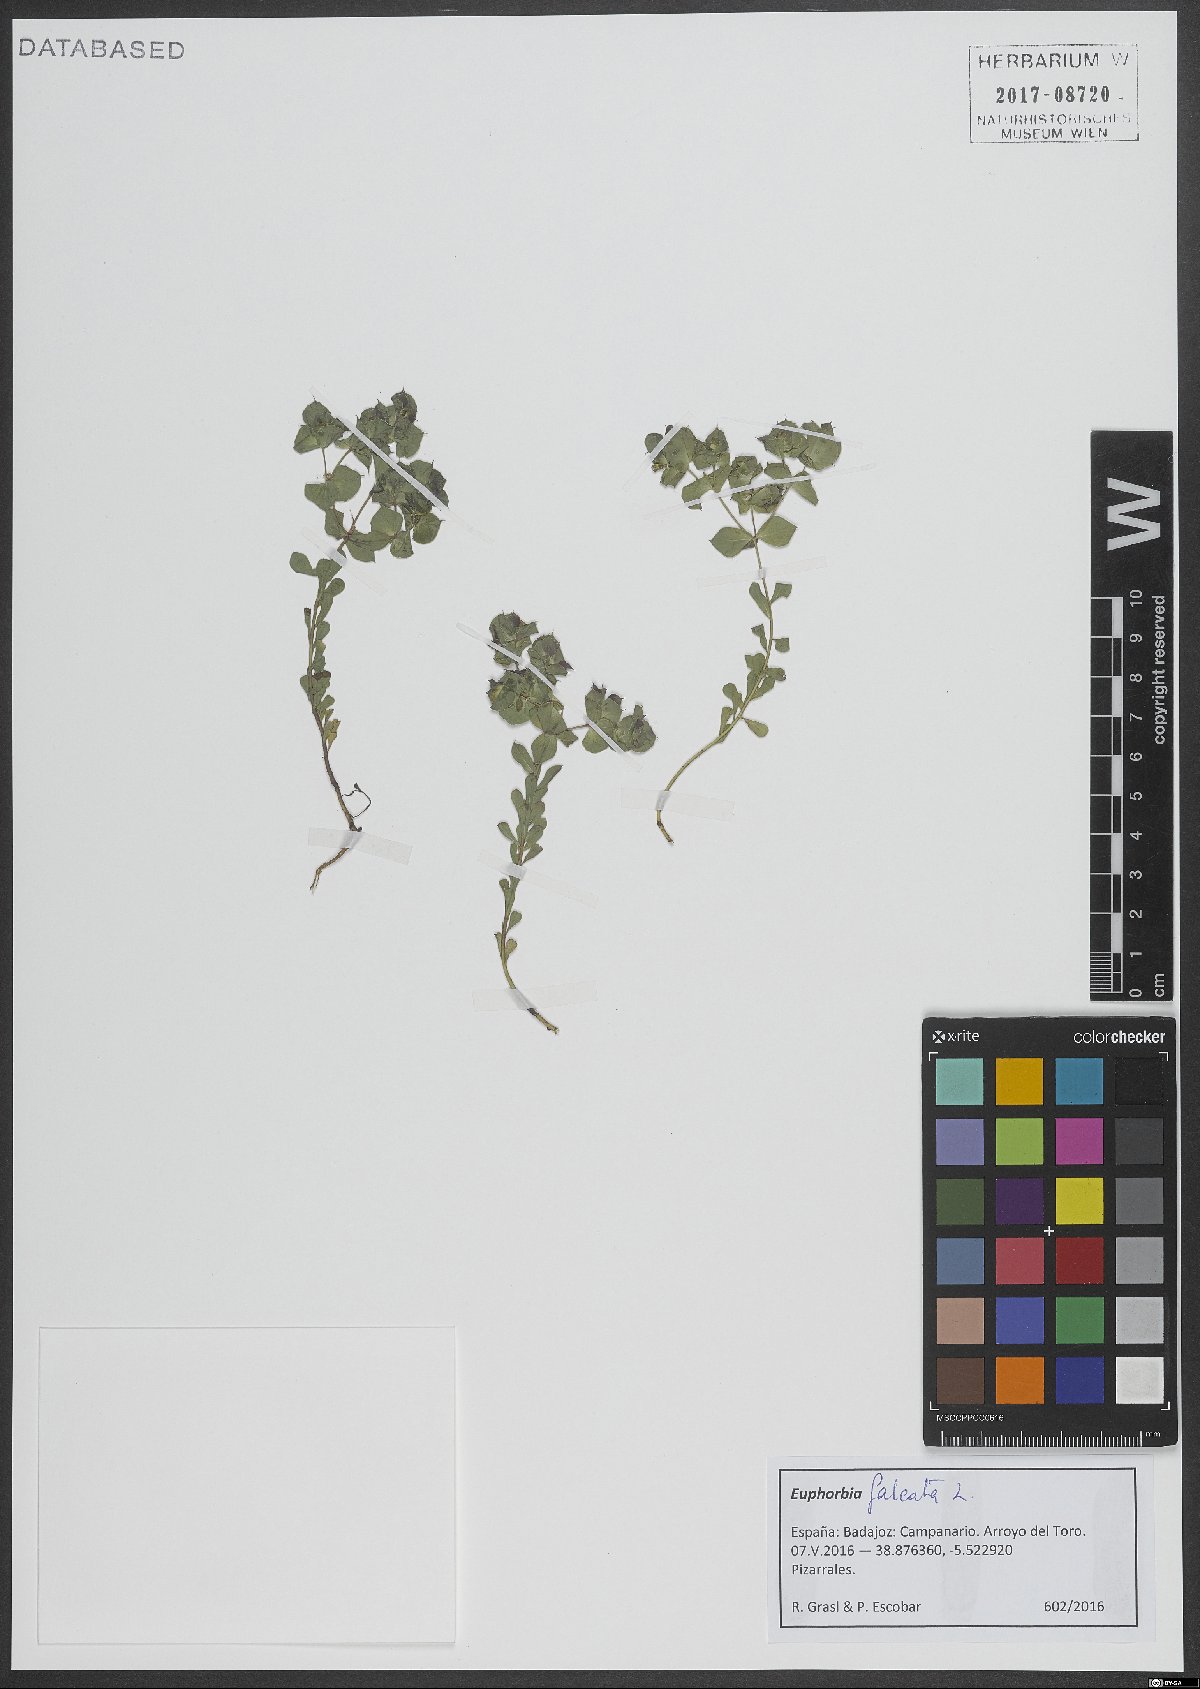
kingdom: Plantae
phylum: Tracheophyta
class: Magnoliopsida
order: Malpighiales
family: Euphorbiaceae
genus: Euphorbia
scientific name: Euphorbia falcata
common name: Sickle spurge
